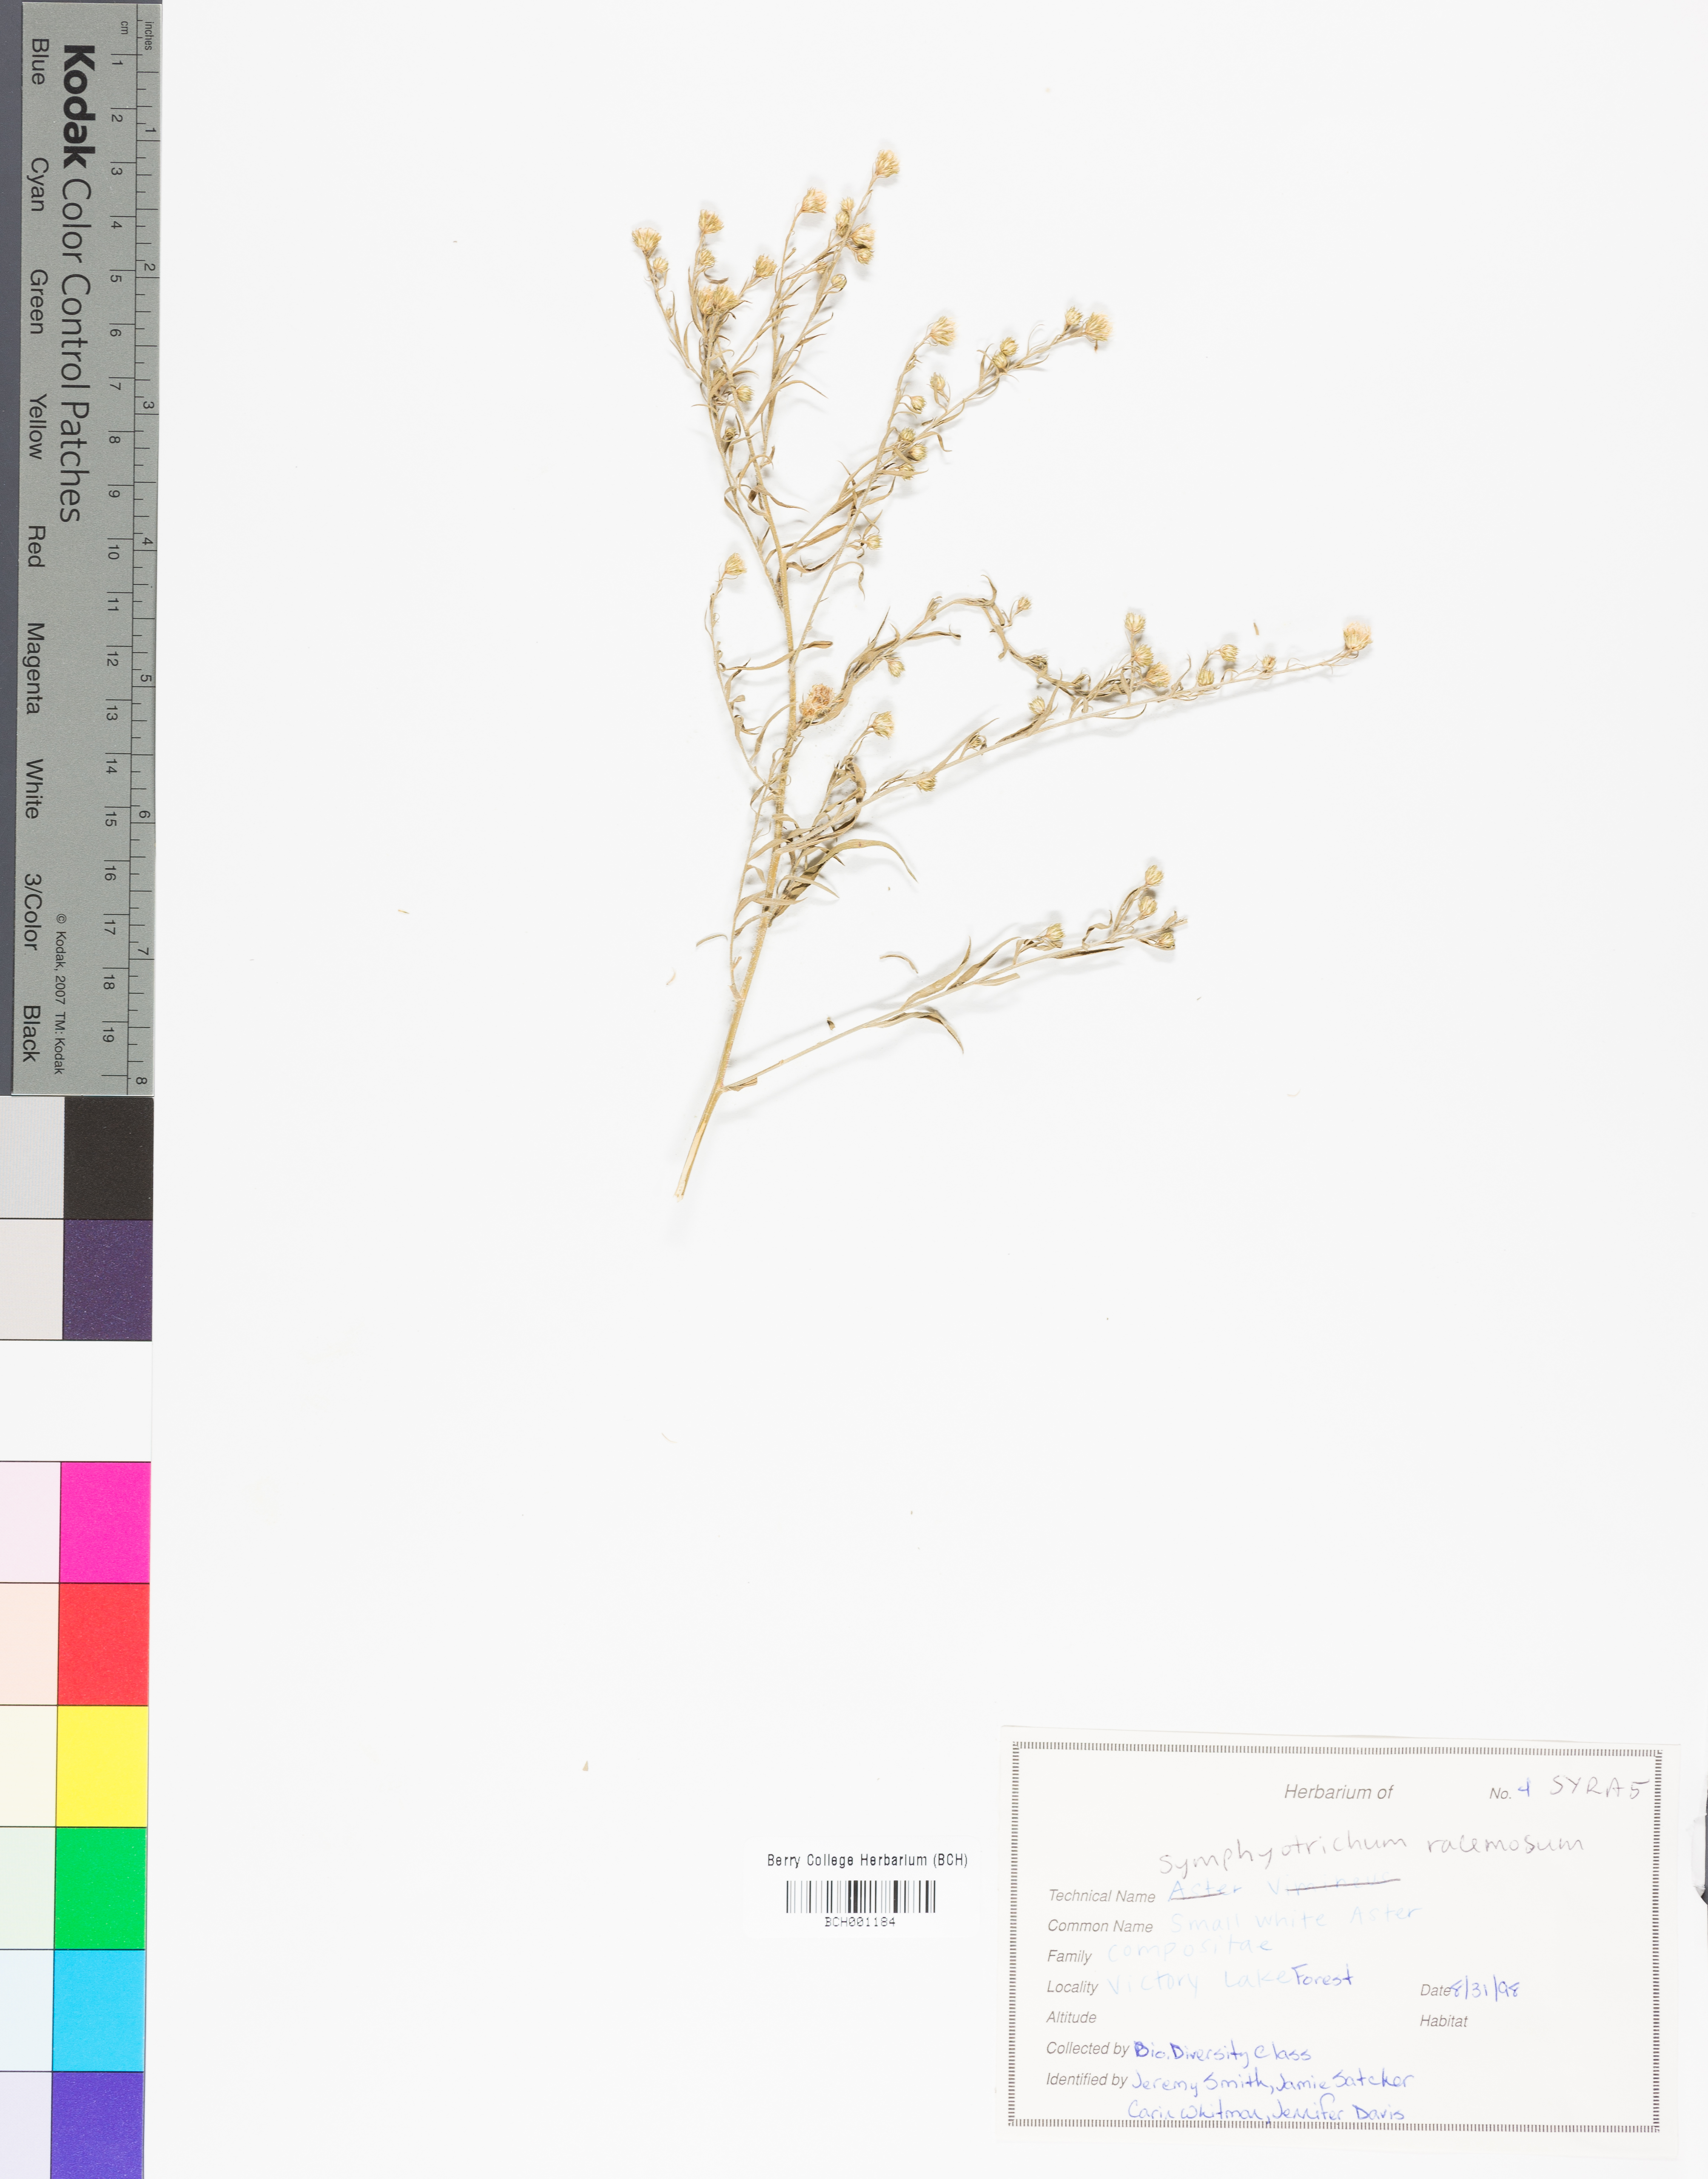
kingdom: Plantae
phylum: Tracheophyta
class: Magnoliopsida
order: Asterales
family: Asteraceae
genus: Symphyotrichum
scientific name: Symphyotrichum racemosum
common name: Small white aster
